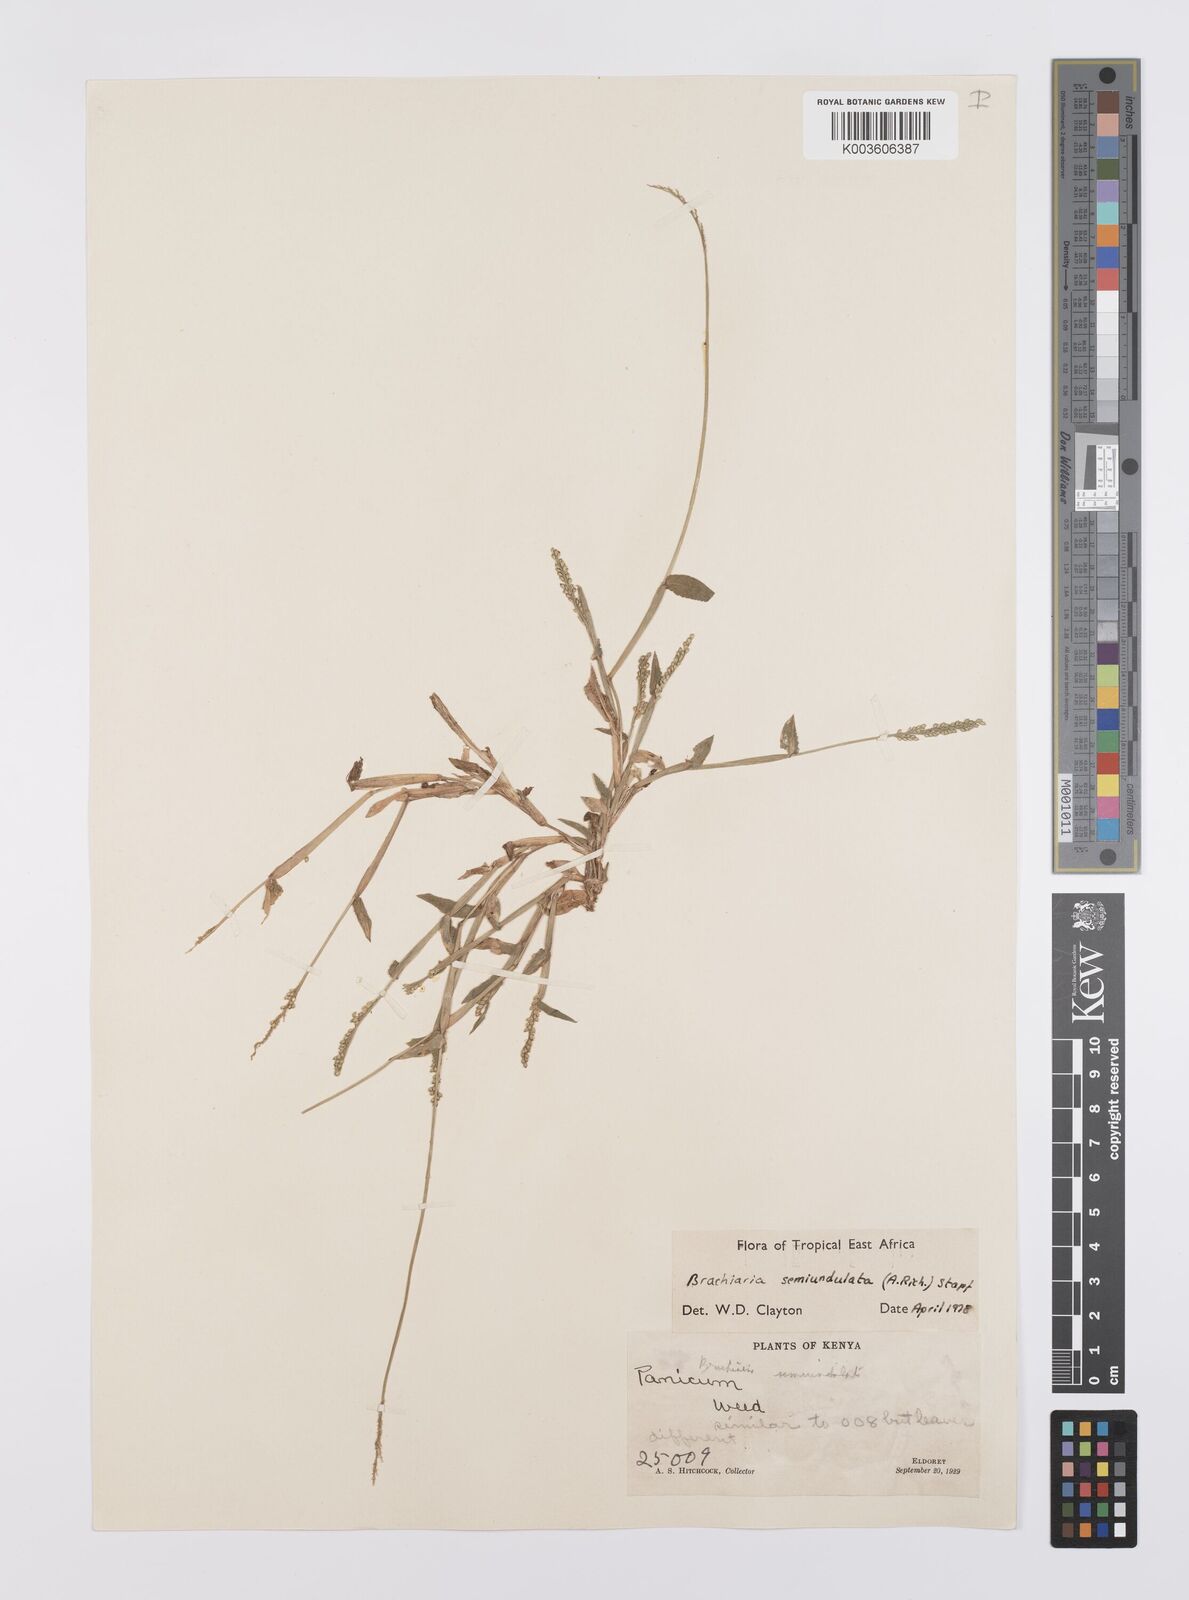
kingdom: Plantae
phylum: Tracheophyta
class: Liliopsida
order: Poales
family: Poaceae
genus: Urochloa
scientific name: Urochloa semiundulata
